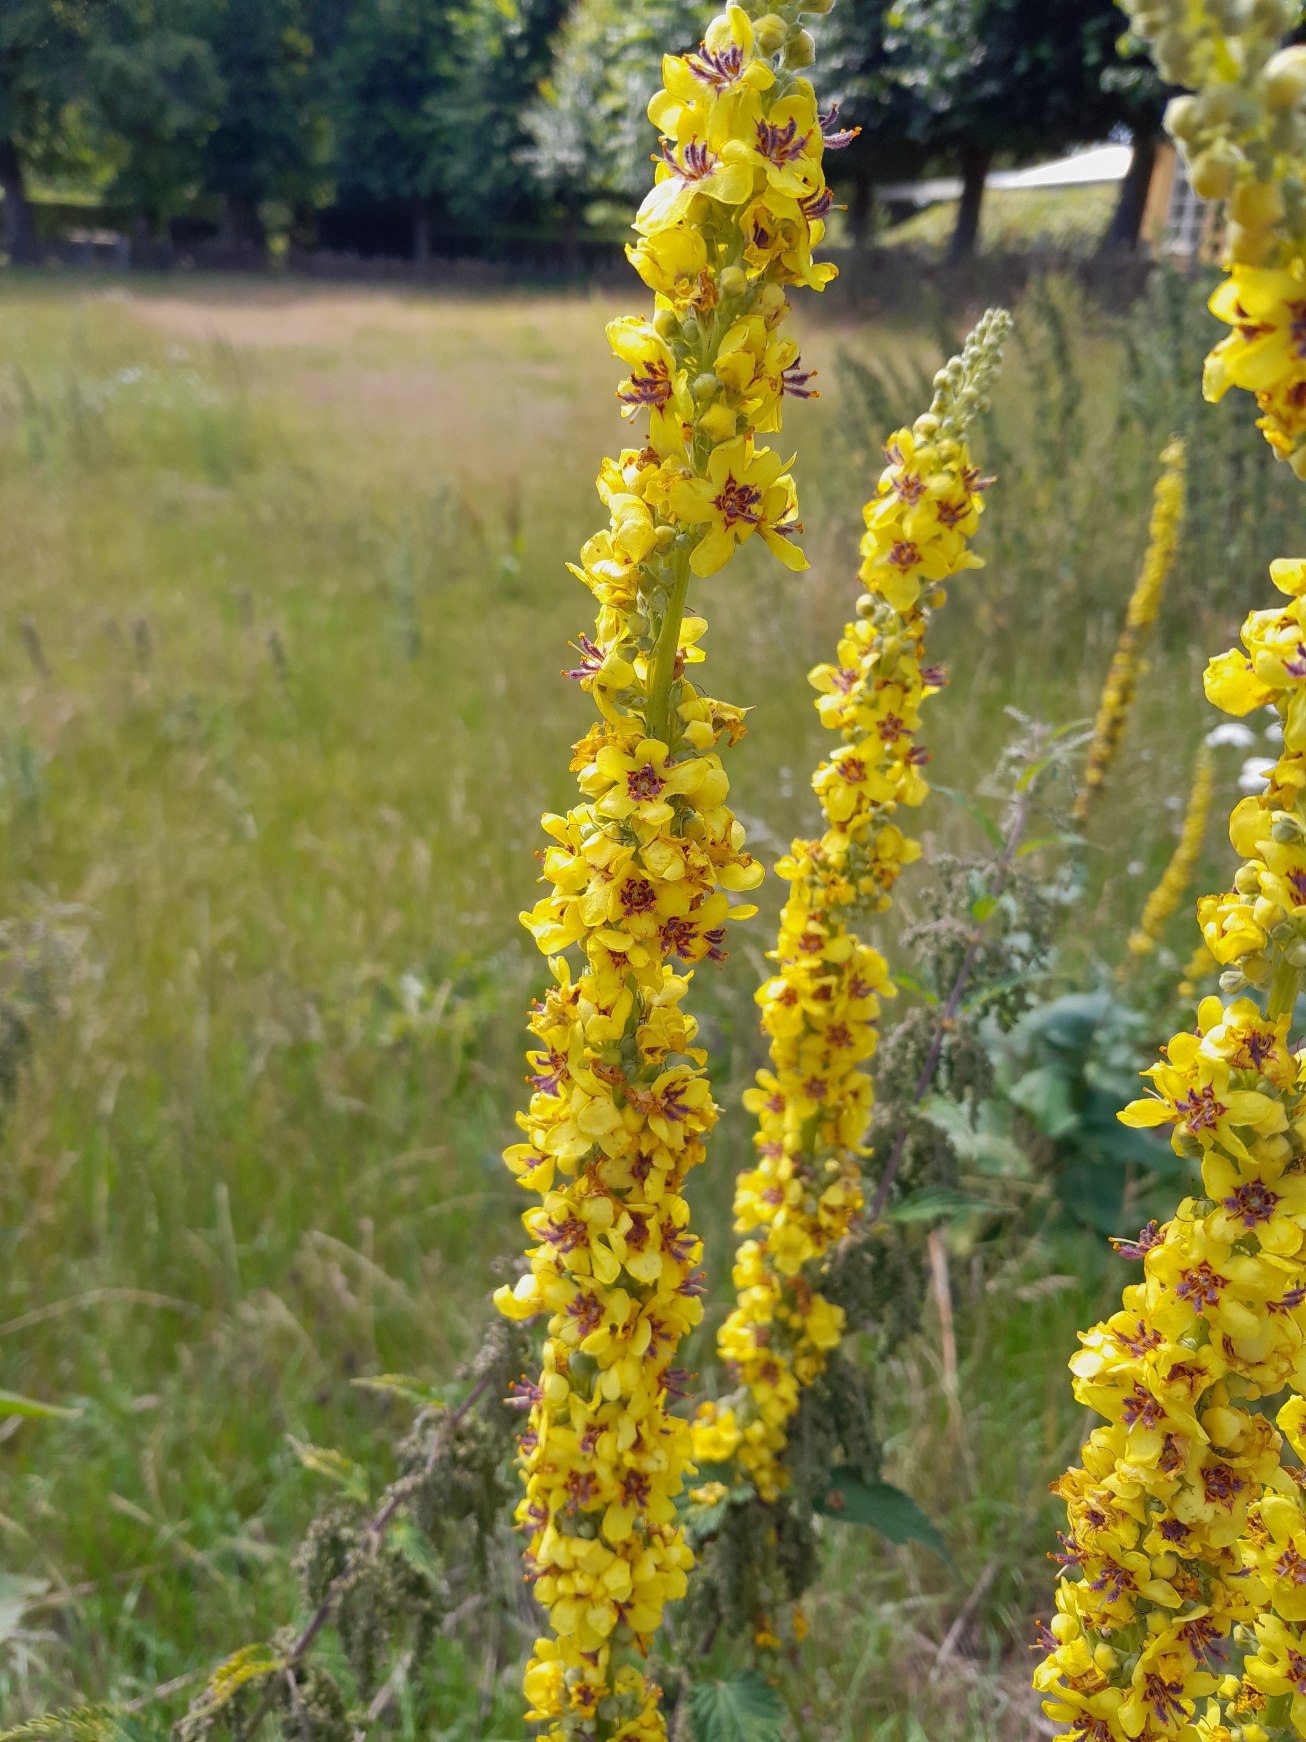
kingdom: Plantae
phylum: Tracheophyta
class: Magnoliopsida
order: Lamiales
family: Scrophulariaceae
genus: Verbascum
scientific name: Verbascum nigrum
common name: Mørk kongelys
